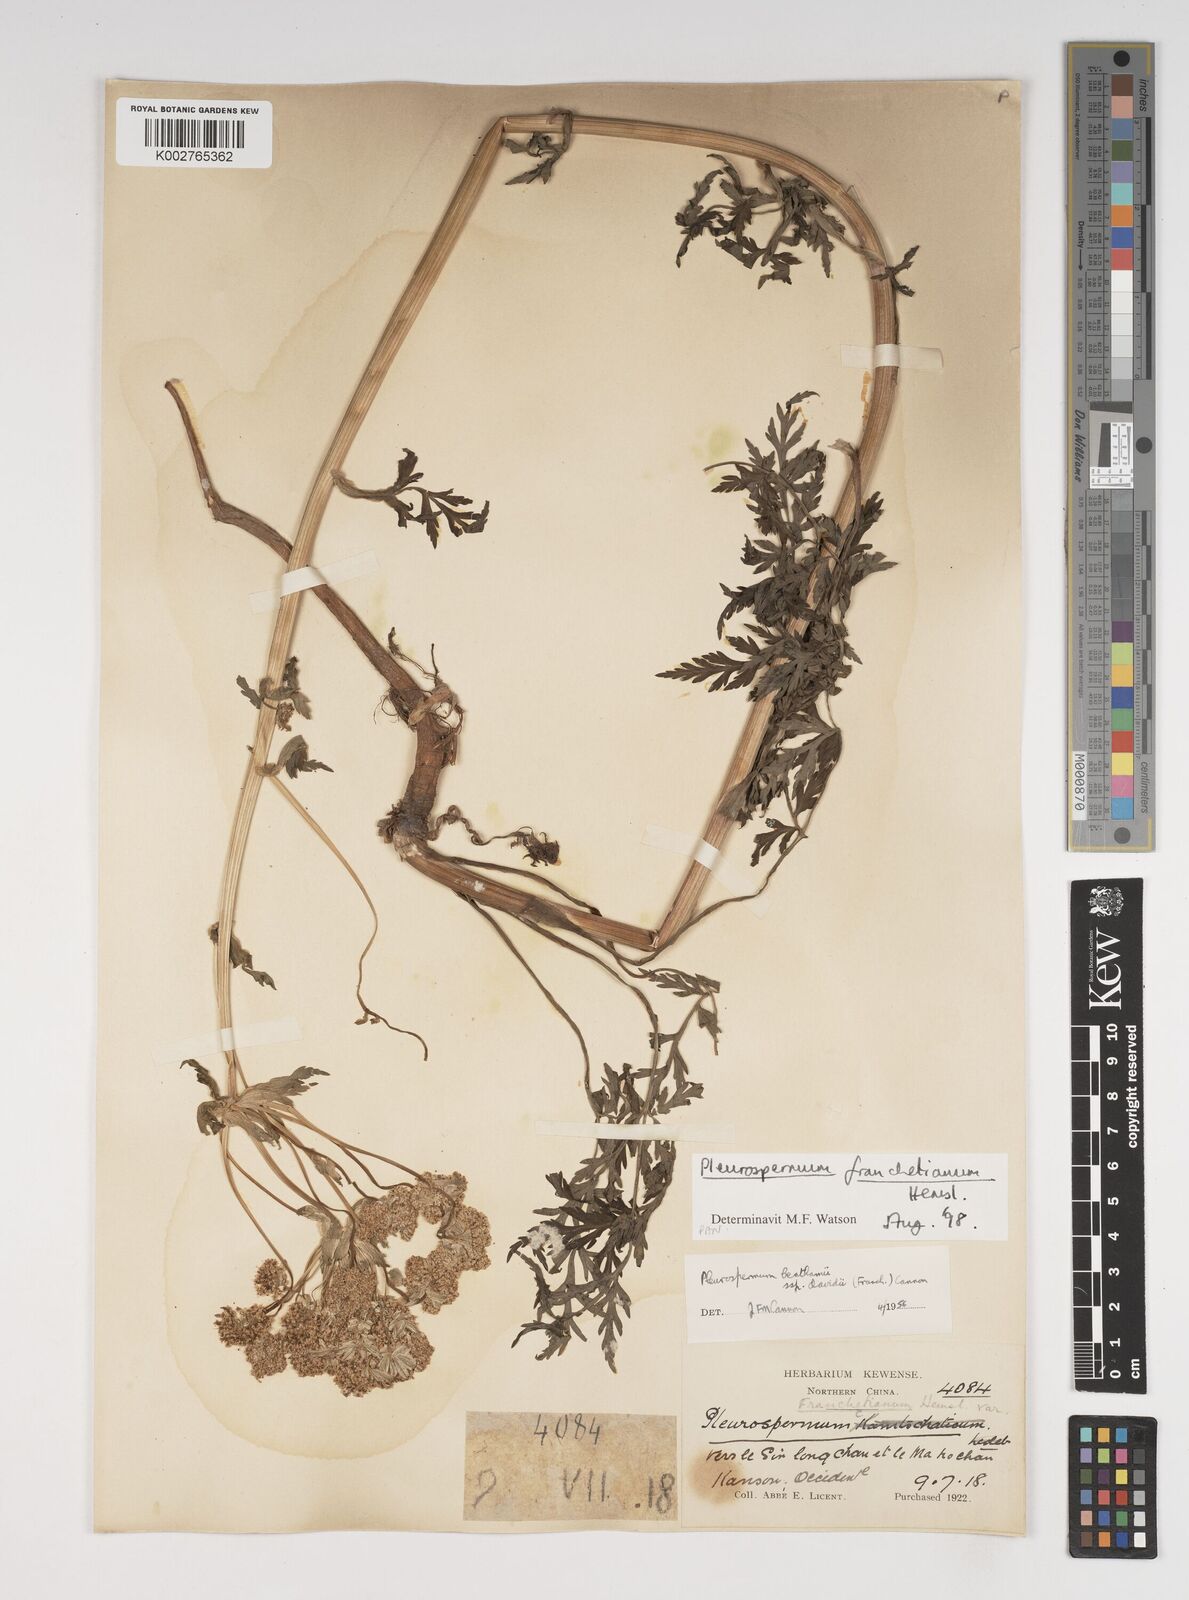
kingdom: Plantae
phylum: Tracheophyta
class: Magnoliopsida
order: Apiales
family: Apiaceae
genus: Hymenidium
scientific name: Hymenidium
